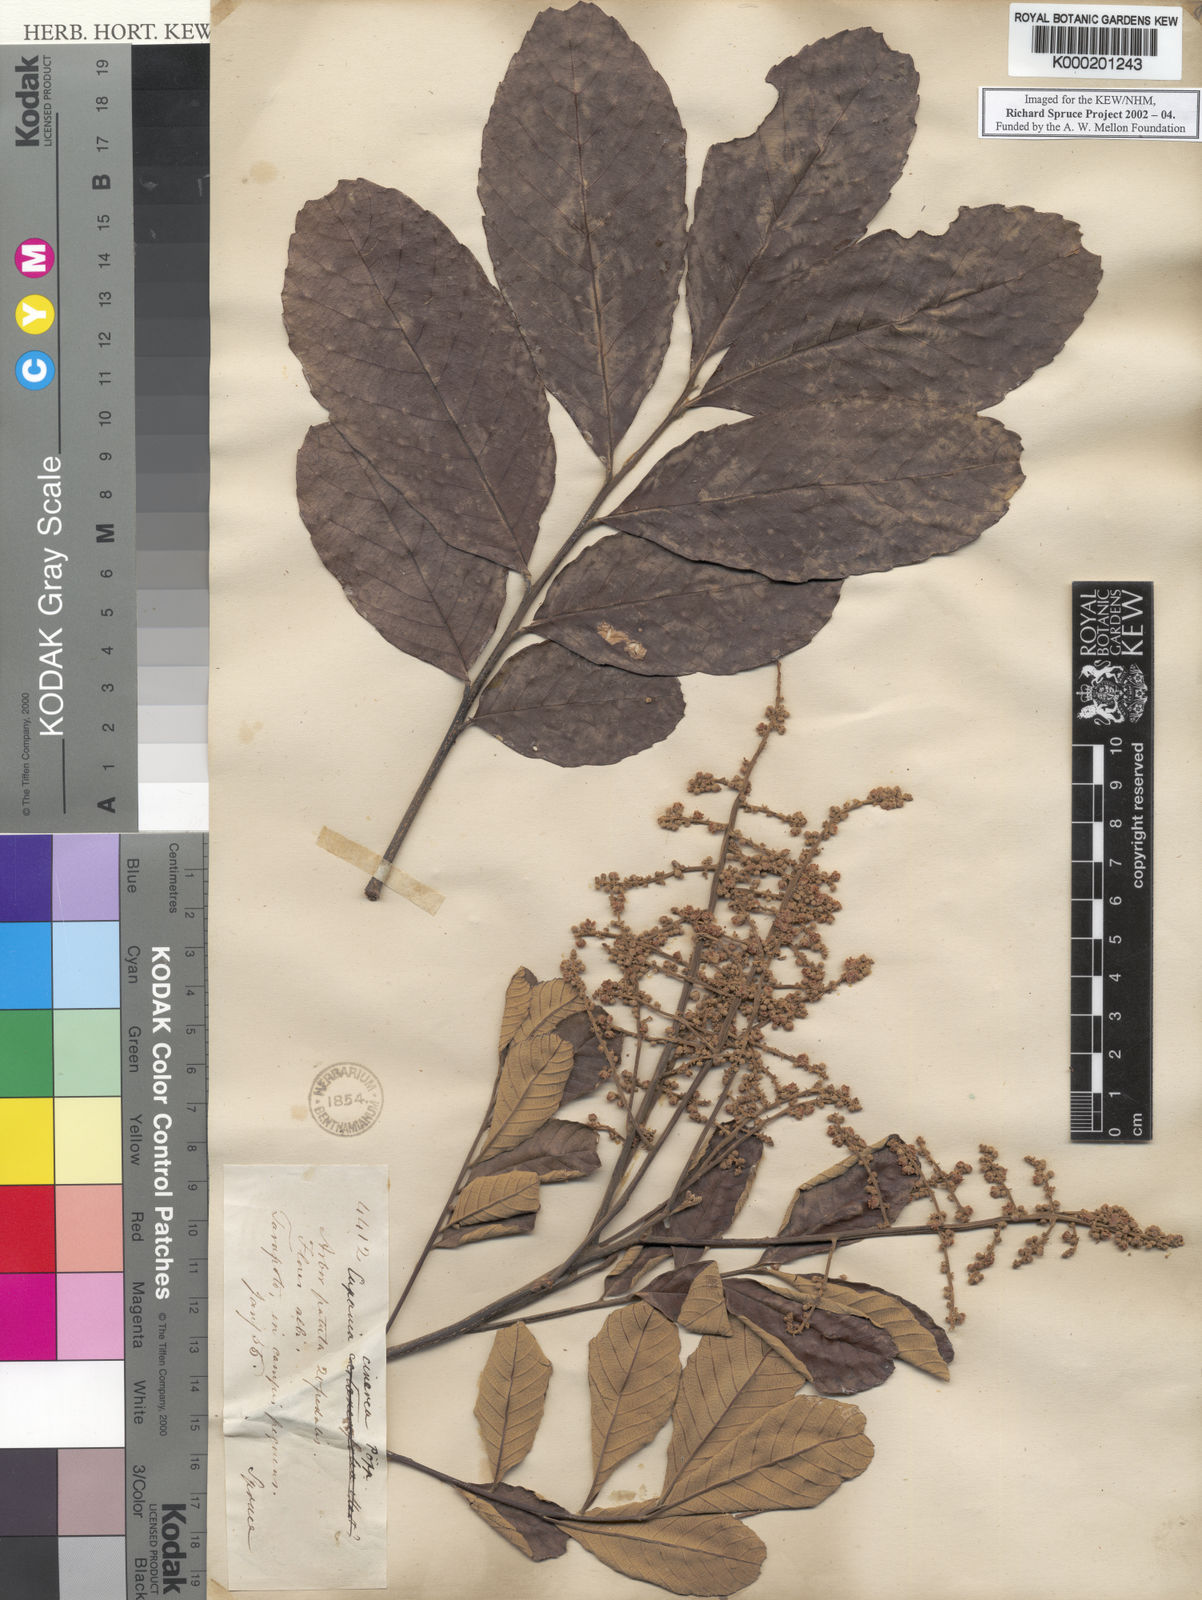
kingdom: Plantae
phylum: Tracheophyta
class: Magnoliopsida
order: Sapindales
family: Sapindaceae
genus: Cupania
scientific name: Cupania cinerea
